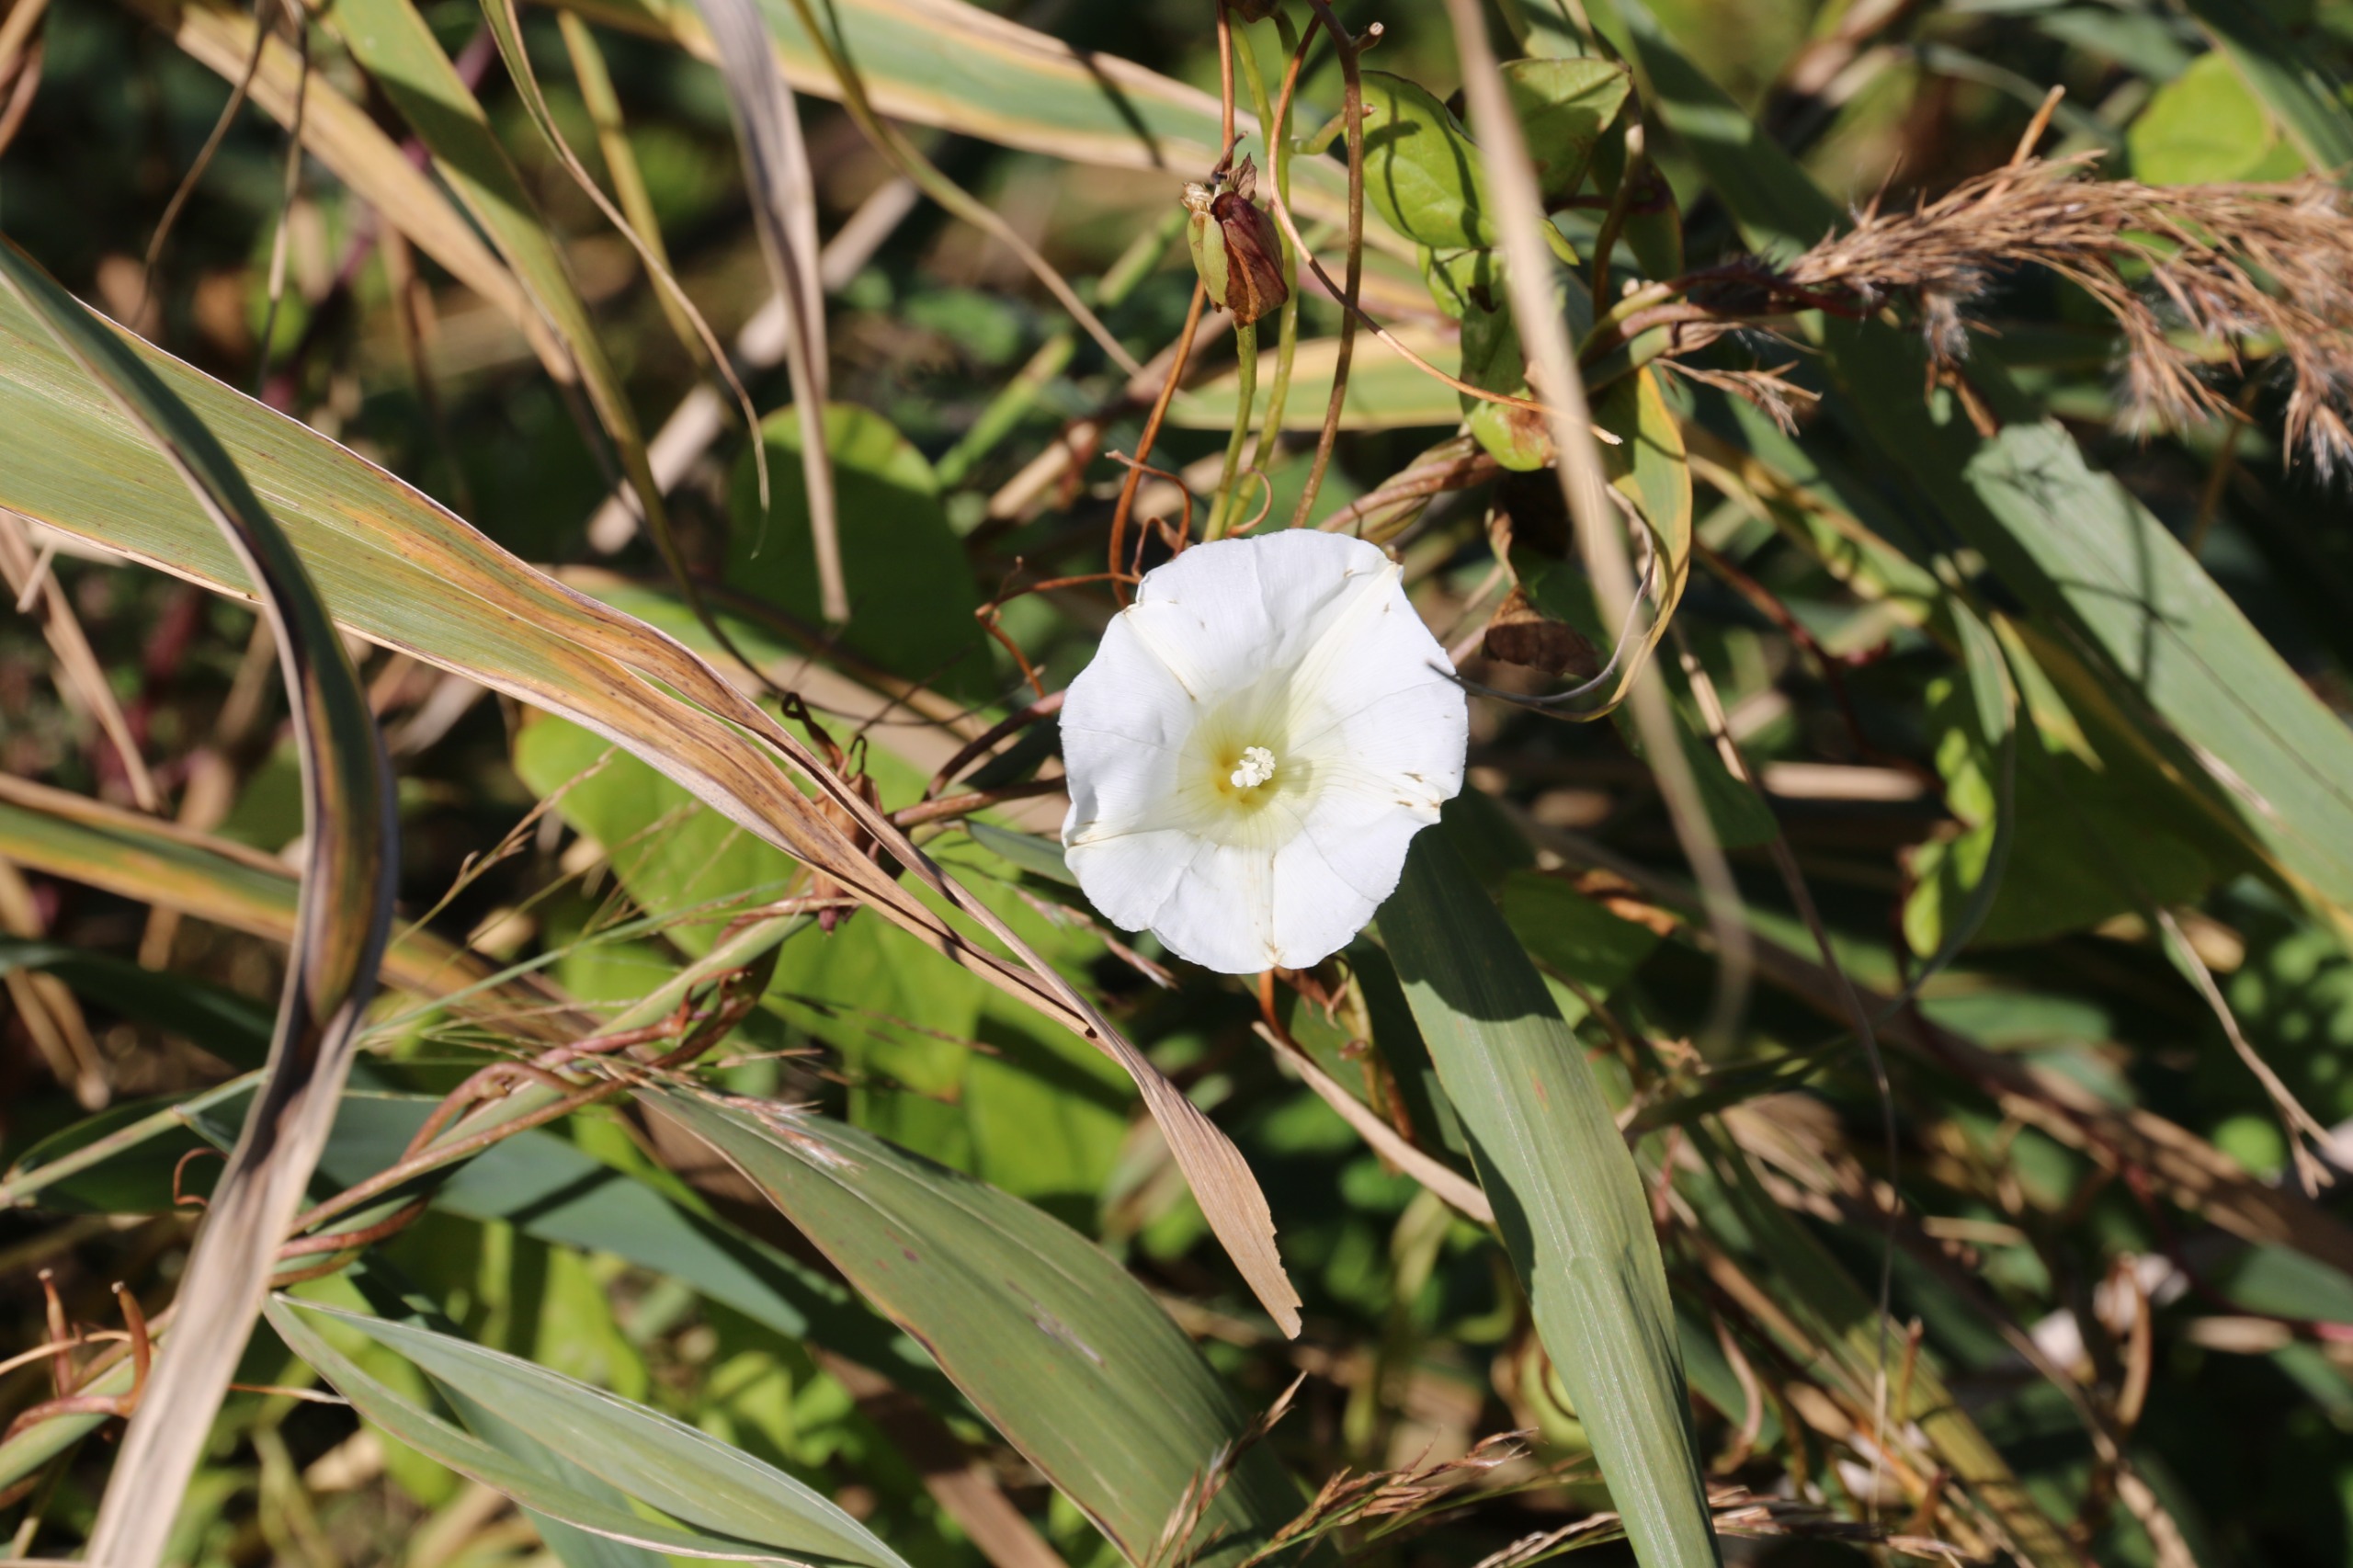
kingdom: Plantae
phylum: Tracheophyta
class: Magnoliopsida
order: Solanales
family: Convolvulaceae
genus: Calystegia
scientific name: Calystegia sepium
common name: Gærde-snerle
